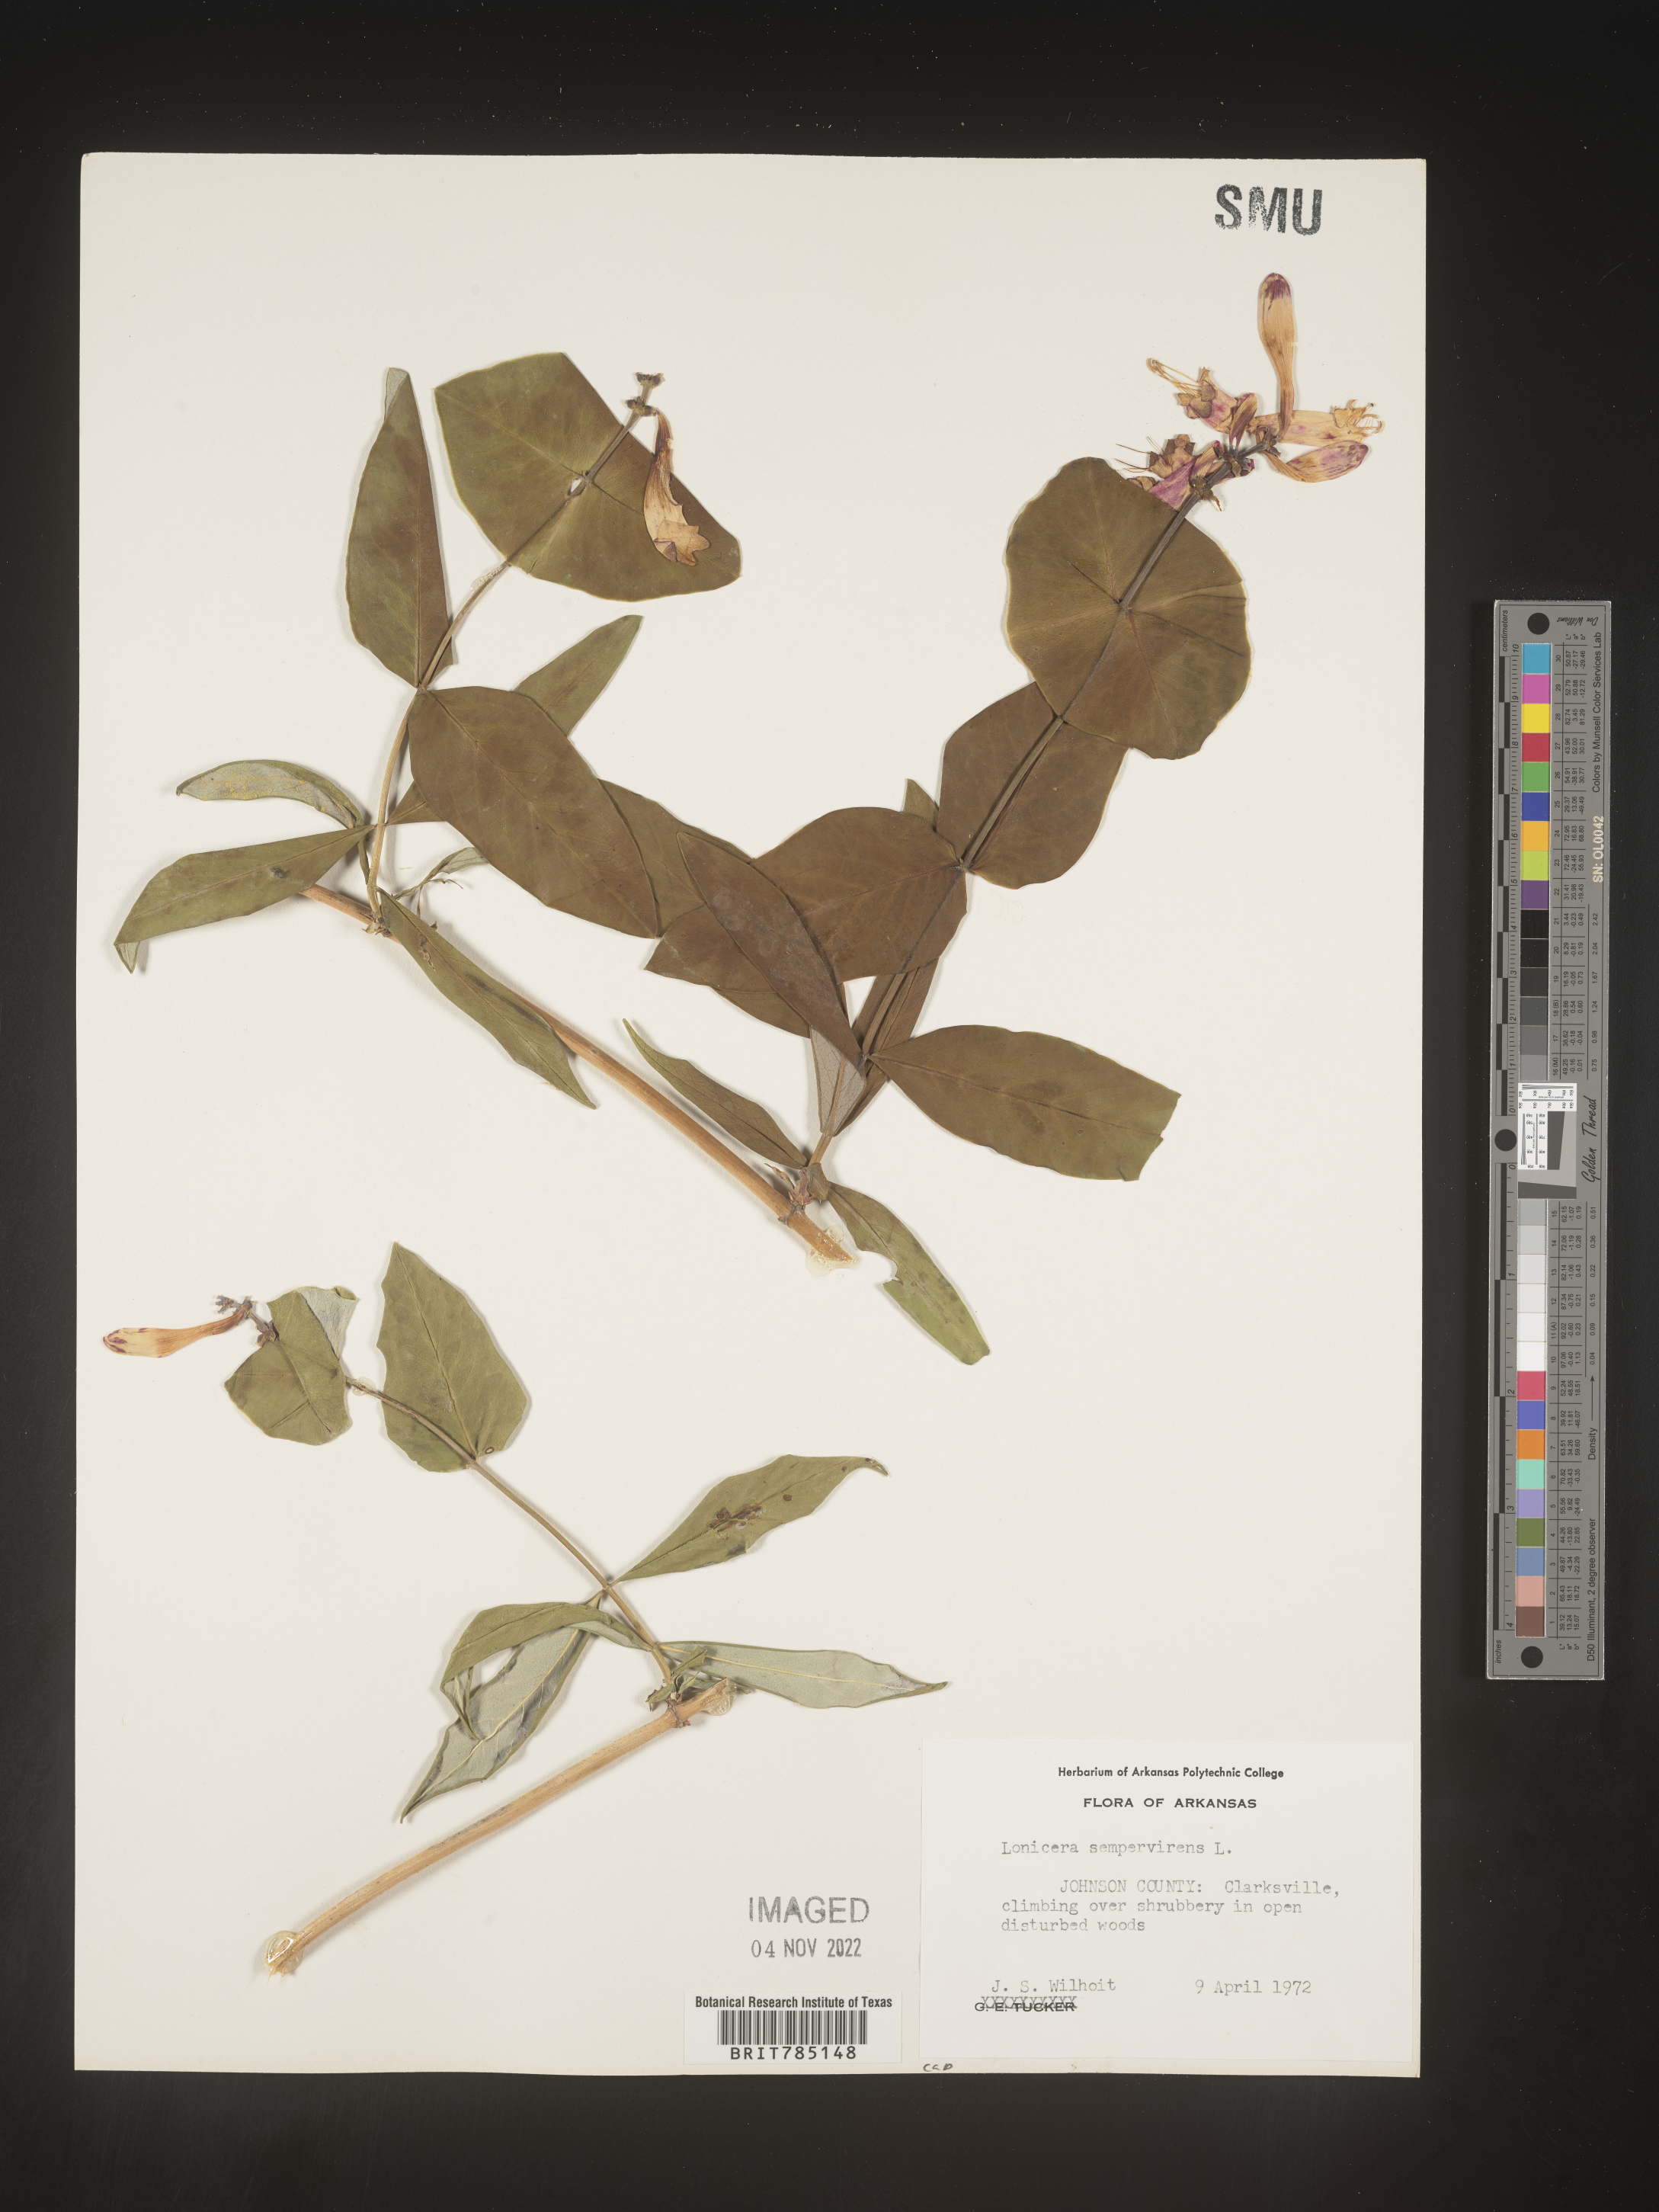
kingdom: Plantae
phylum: Tracheophyta
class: Magnoliopsida
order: Dipsacales
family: Caprifoliaceae
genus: Lonicera
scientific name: Lonicera sempervirens
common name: Coral honeysuckle
